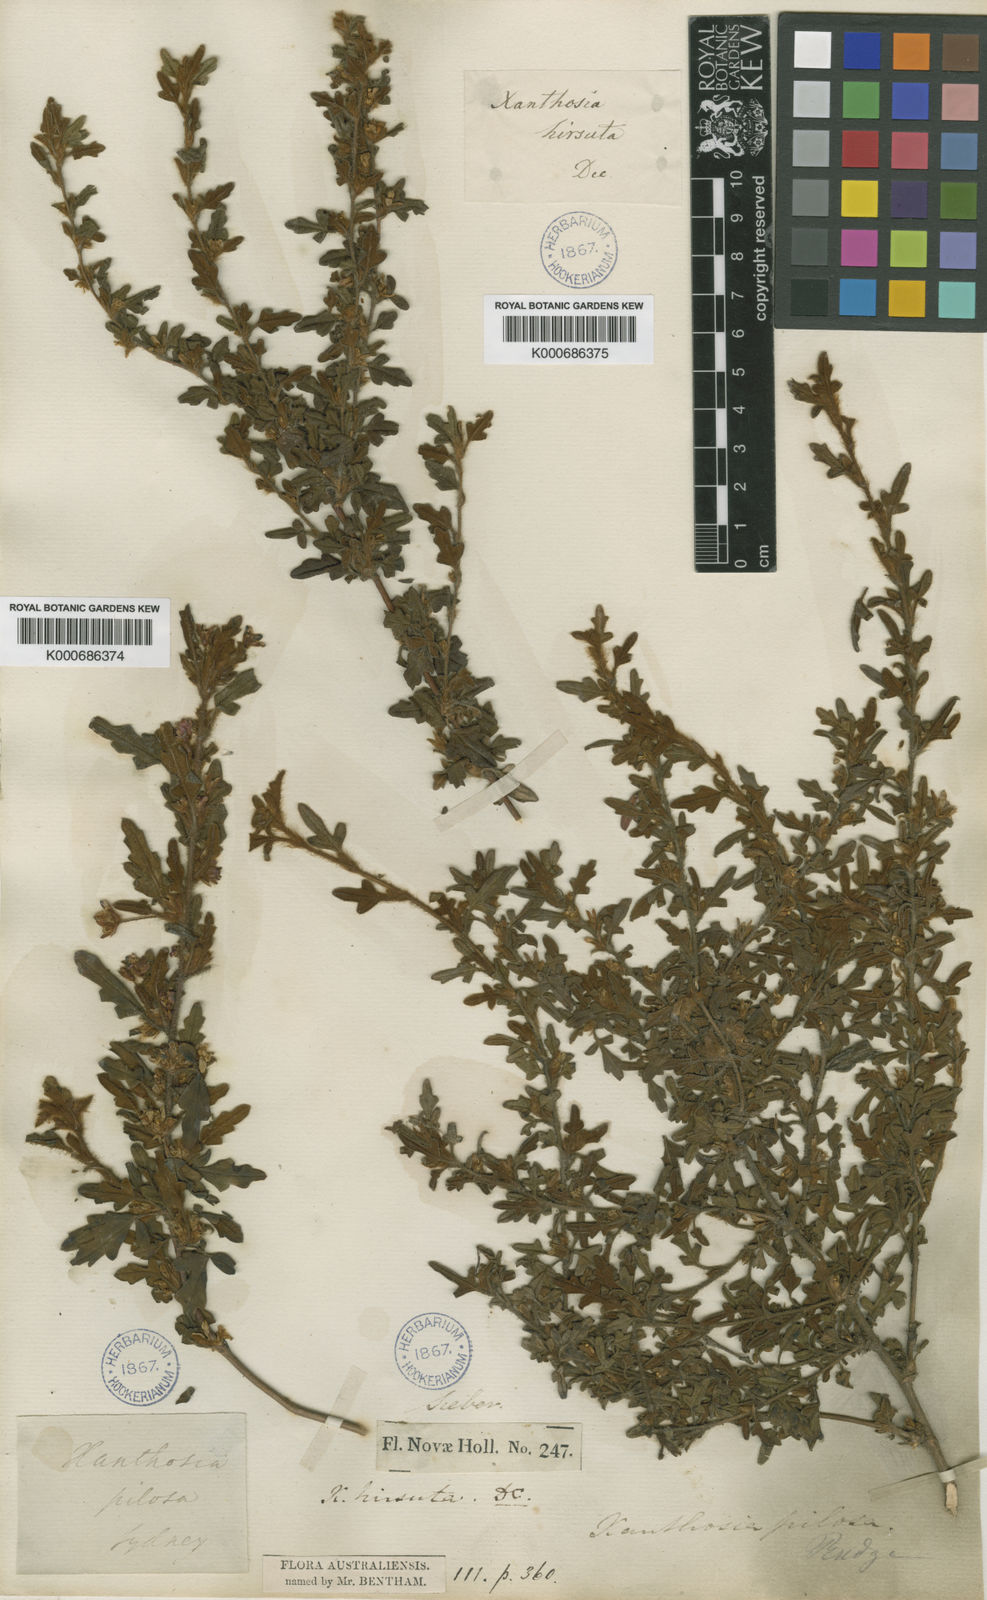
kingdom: Plantae
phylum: Tracheophyta
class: Magnoliopsida
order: Apiales
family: Apiaceae
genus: Xanthosia
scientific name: Xanthosia pilosa
